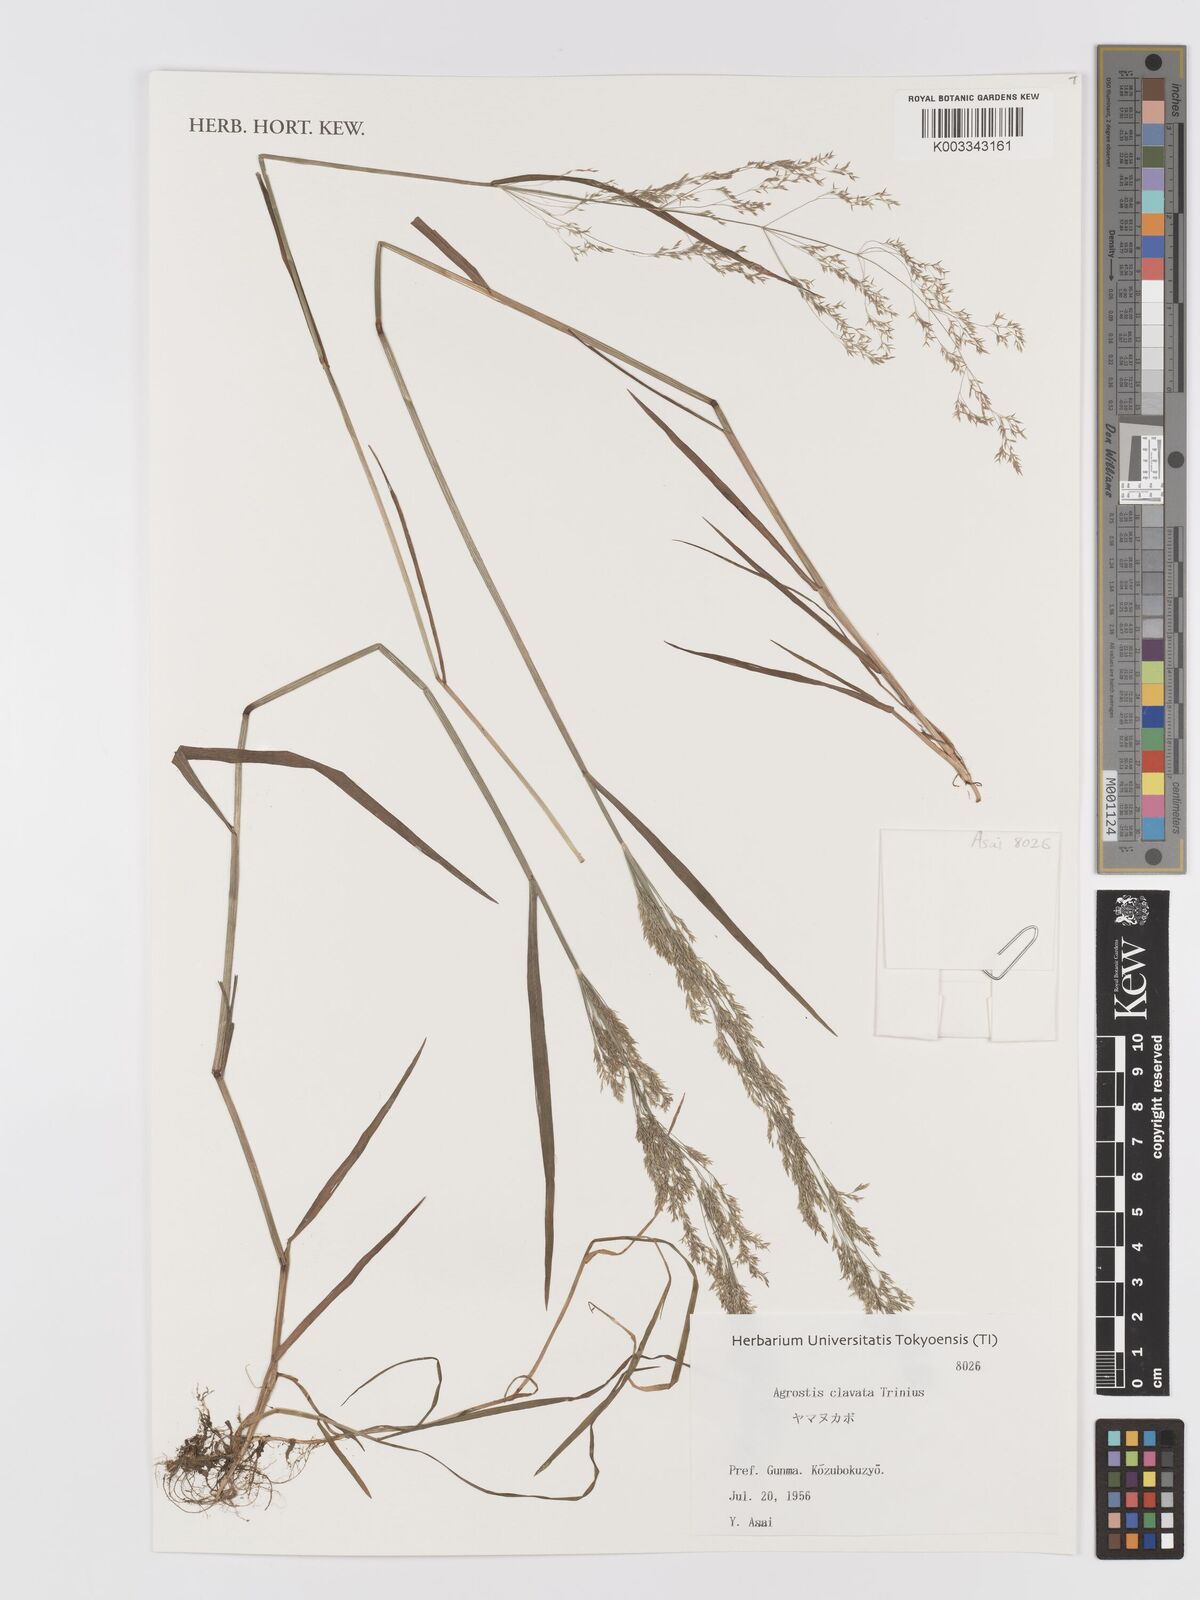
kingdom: Plantae
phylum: Tracheophyta
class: Liliopsida
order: Poales
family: Poaceae
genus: Agrostis
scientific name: Agrostis clavata
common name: Clavate bent
